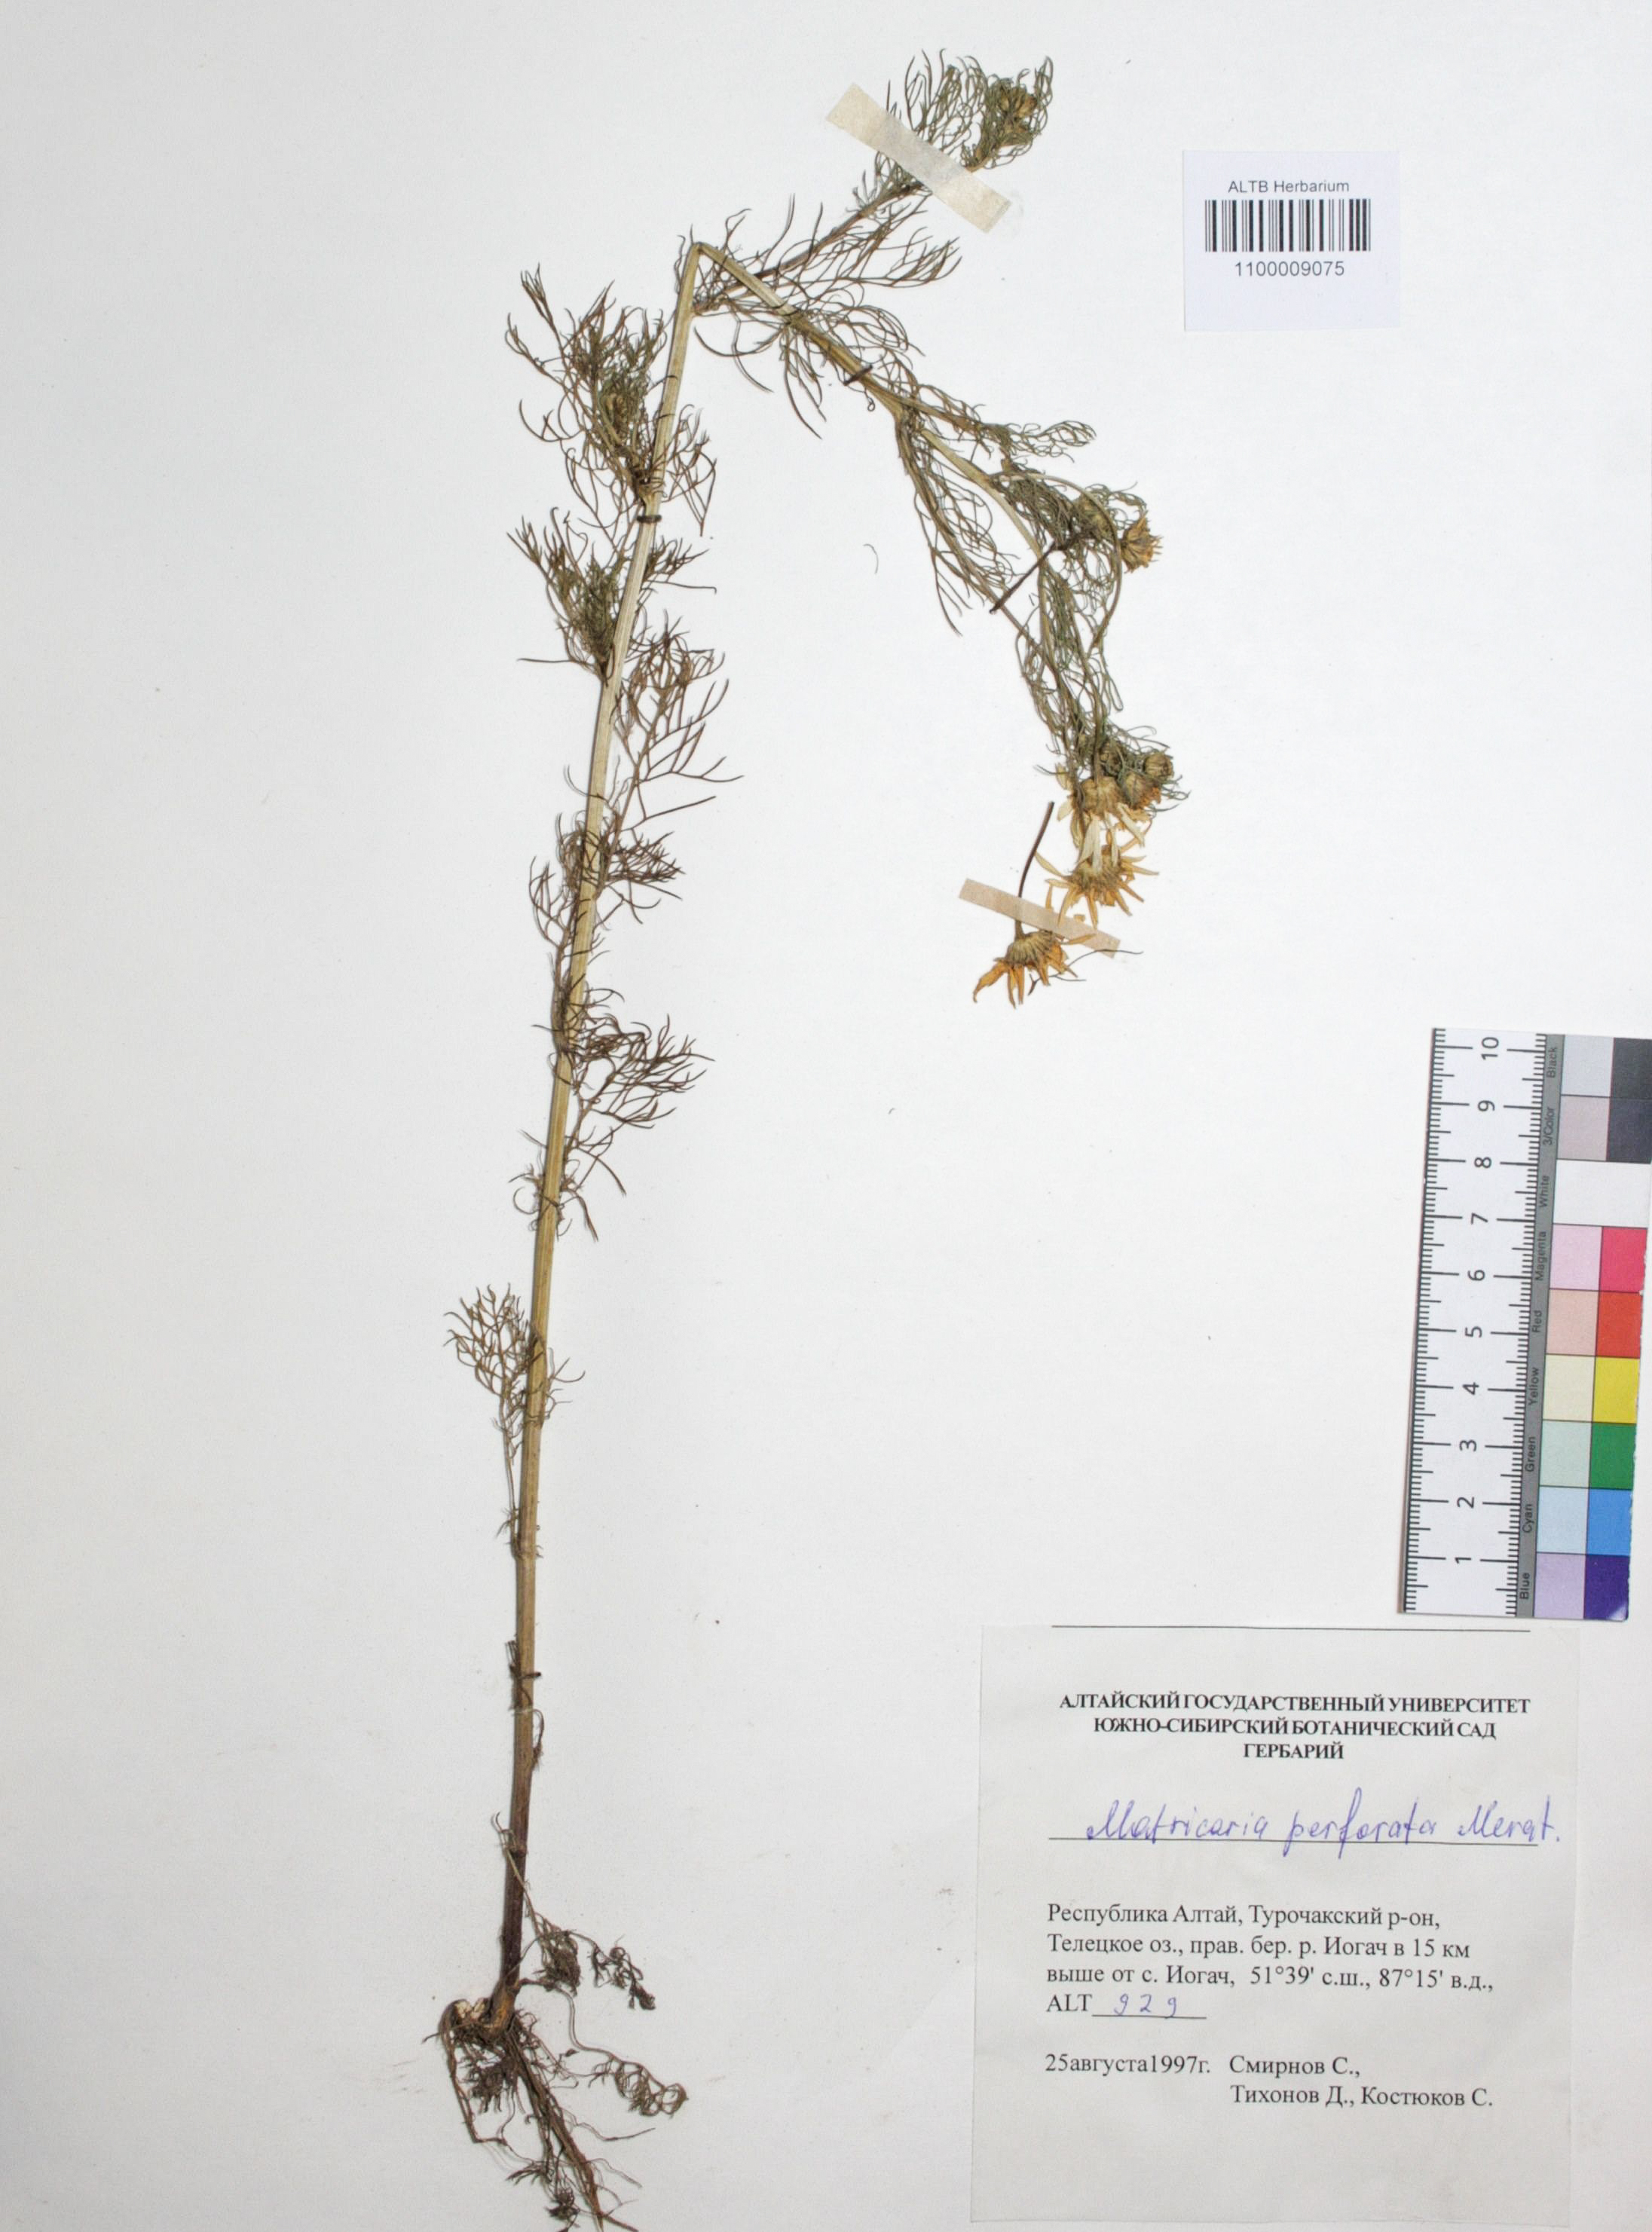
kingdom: Plantae
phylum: Tracheophyta
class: Magnoliopsida
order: Asterales
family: Asteraceae
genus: Tripleurospermum
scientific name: Tripleurospermum inodorum
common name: Scentless mayweed
